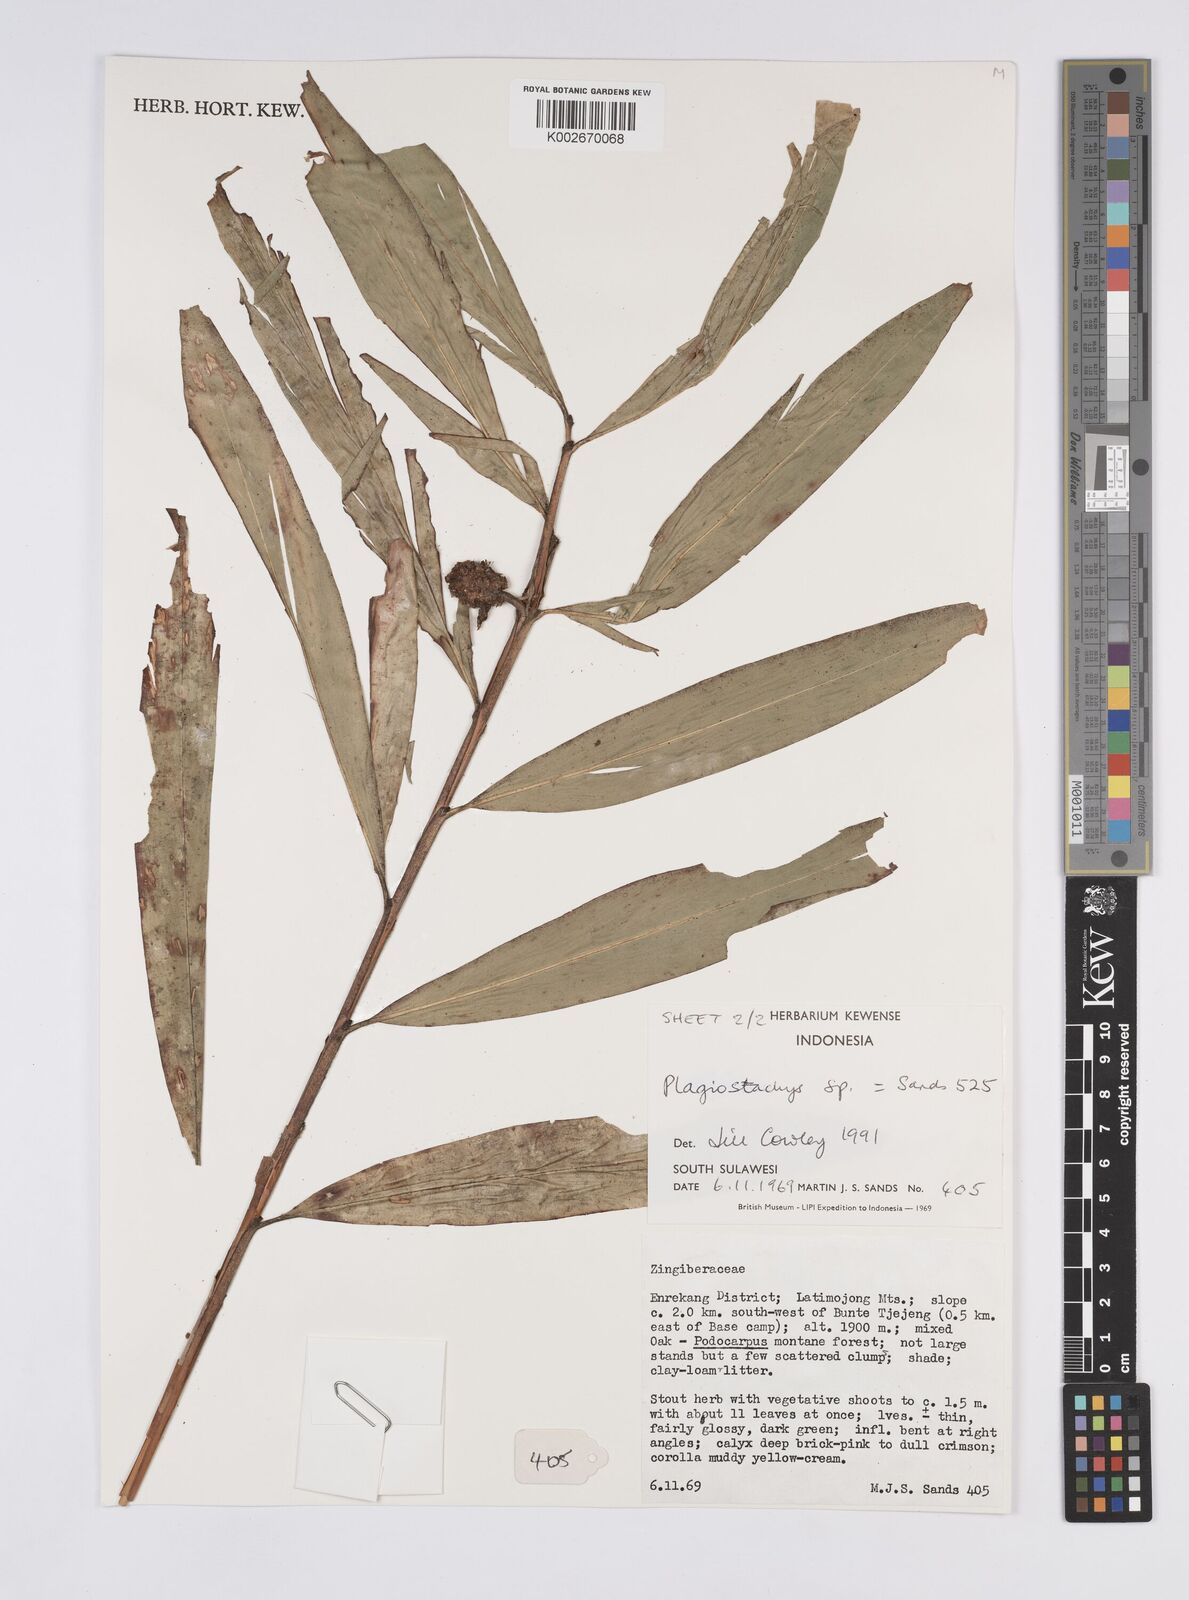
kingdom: Plantae
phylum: Tracheophyta
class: Liliopsida
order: Zingiberales
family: Zingiberaceae
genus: Plagiostachys
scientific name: Plagiostachys
